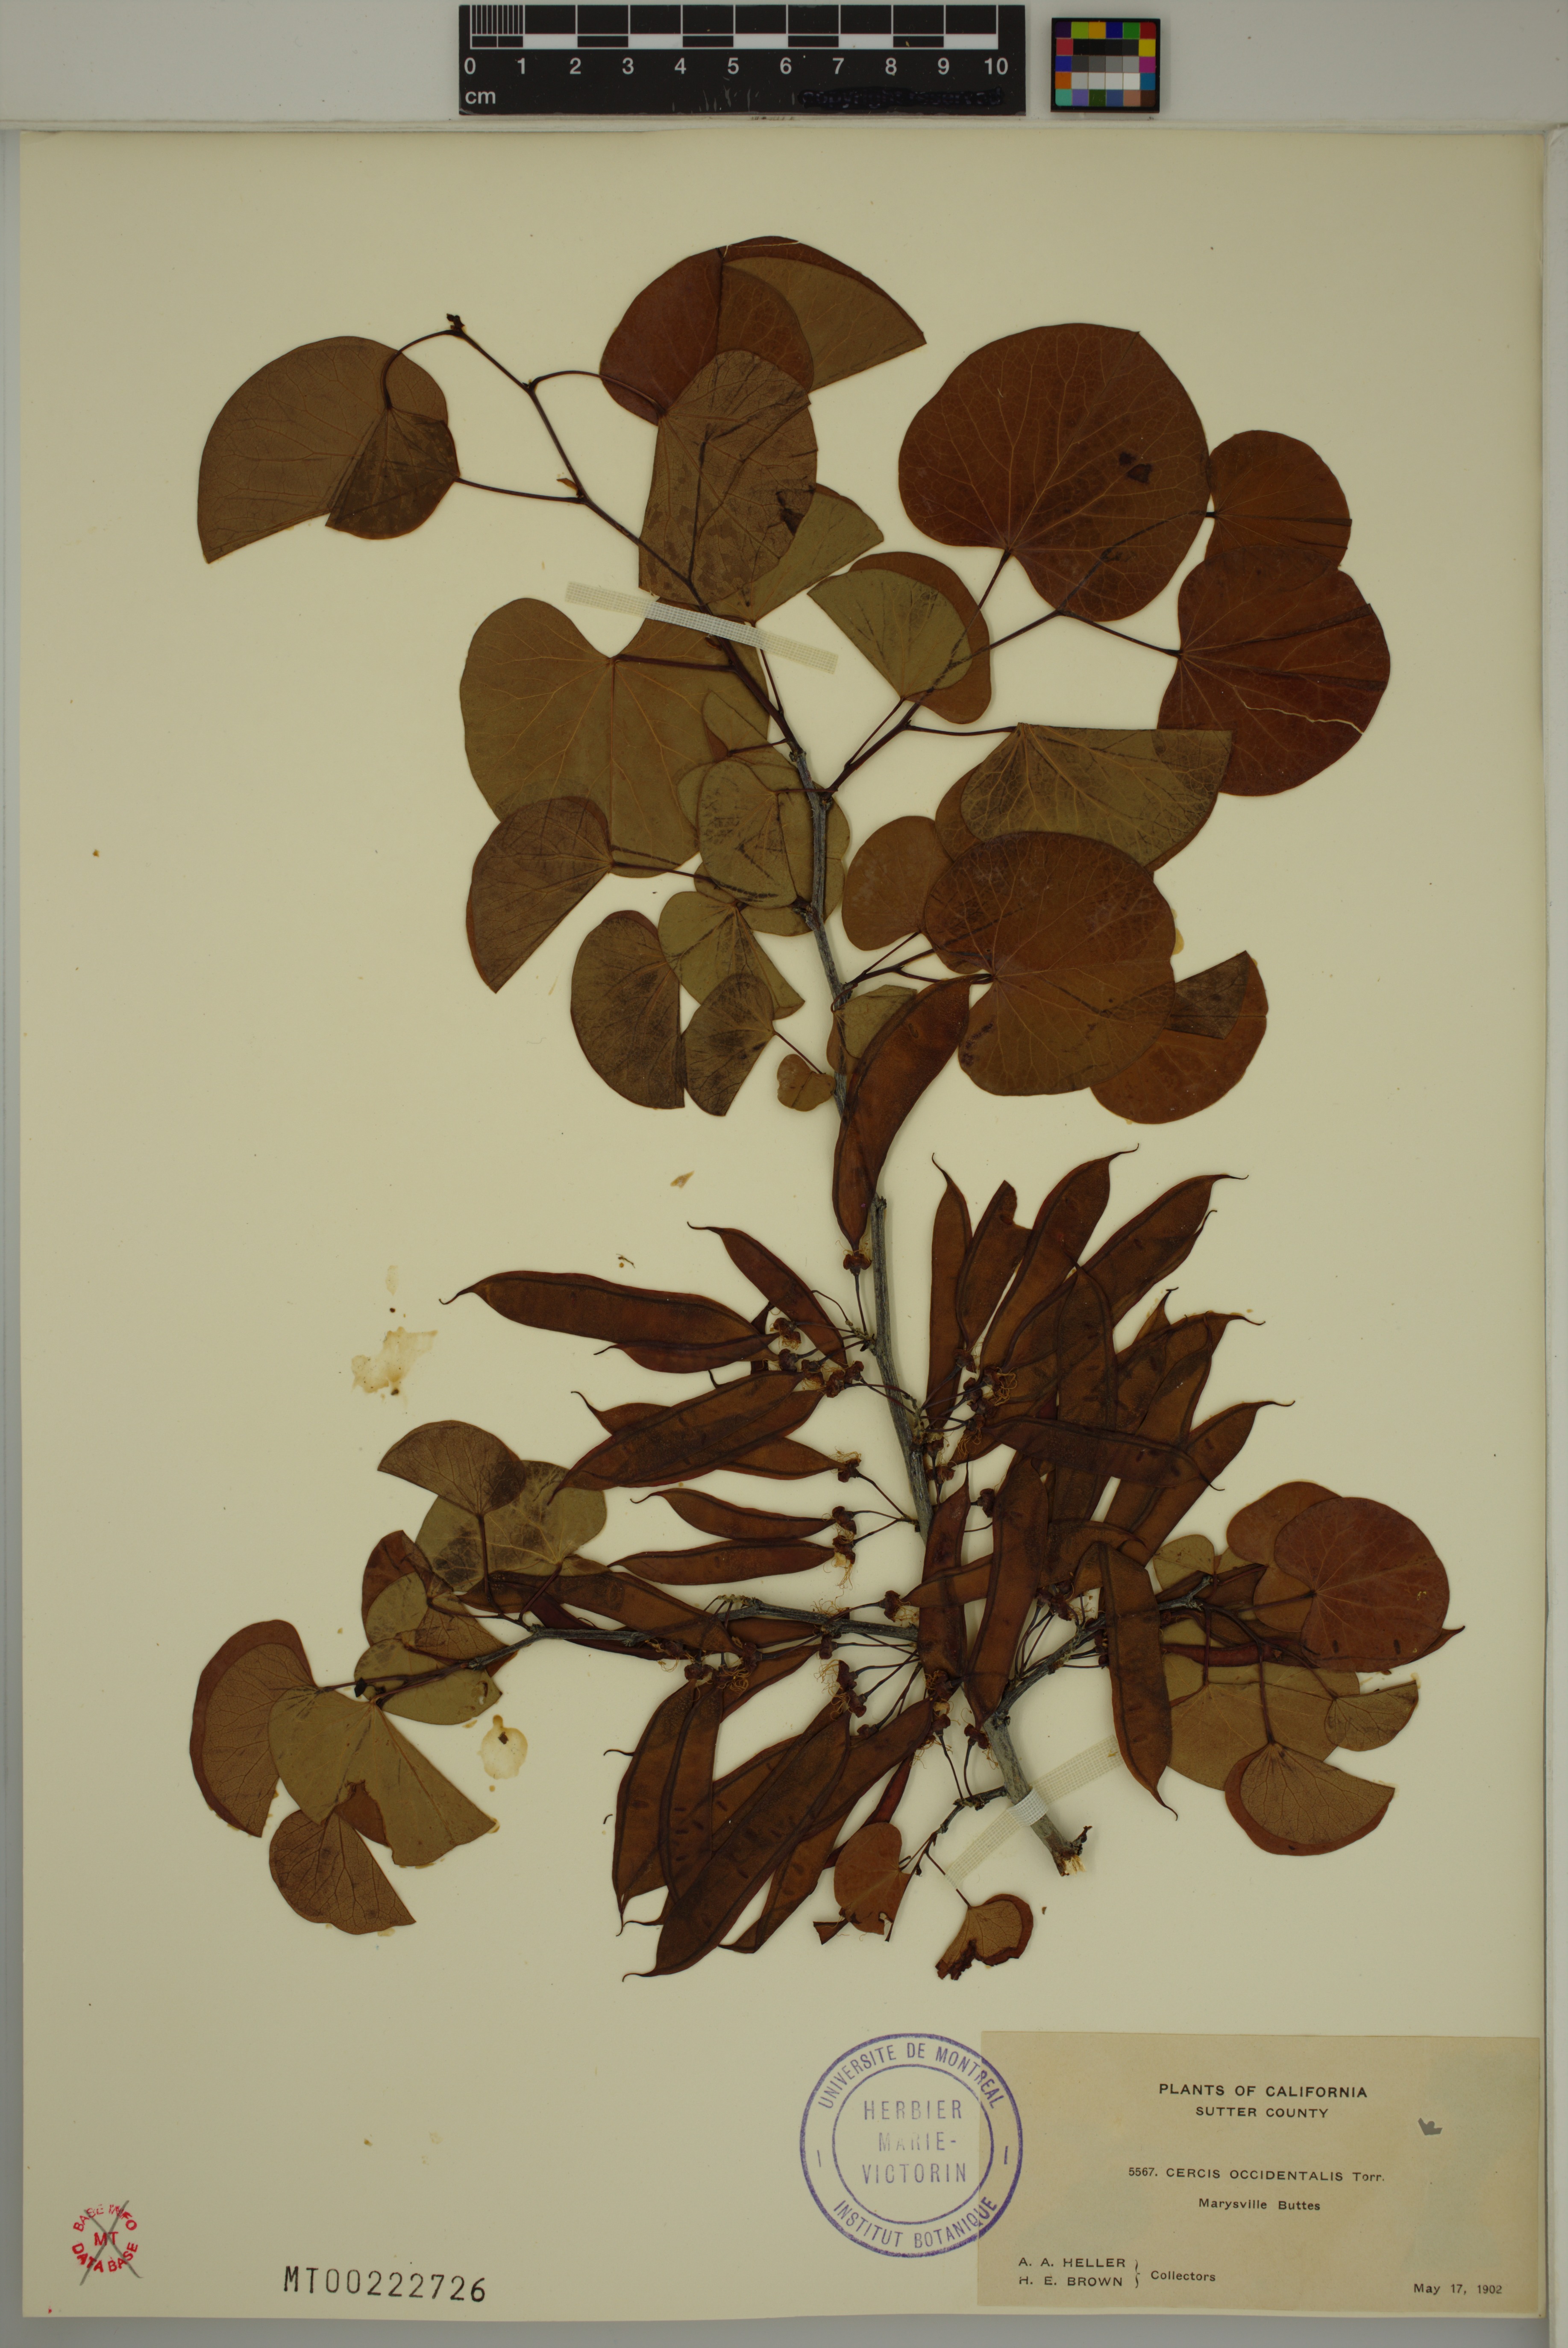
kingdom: Plantae
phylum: Tracheophyta
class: Magnoliopsida
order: Fabales
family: Fabaceae
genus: Cercis
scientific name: Cercis occidentalis
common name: California redbud
